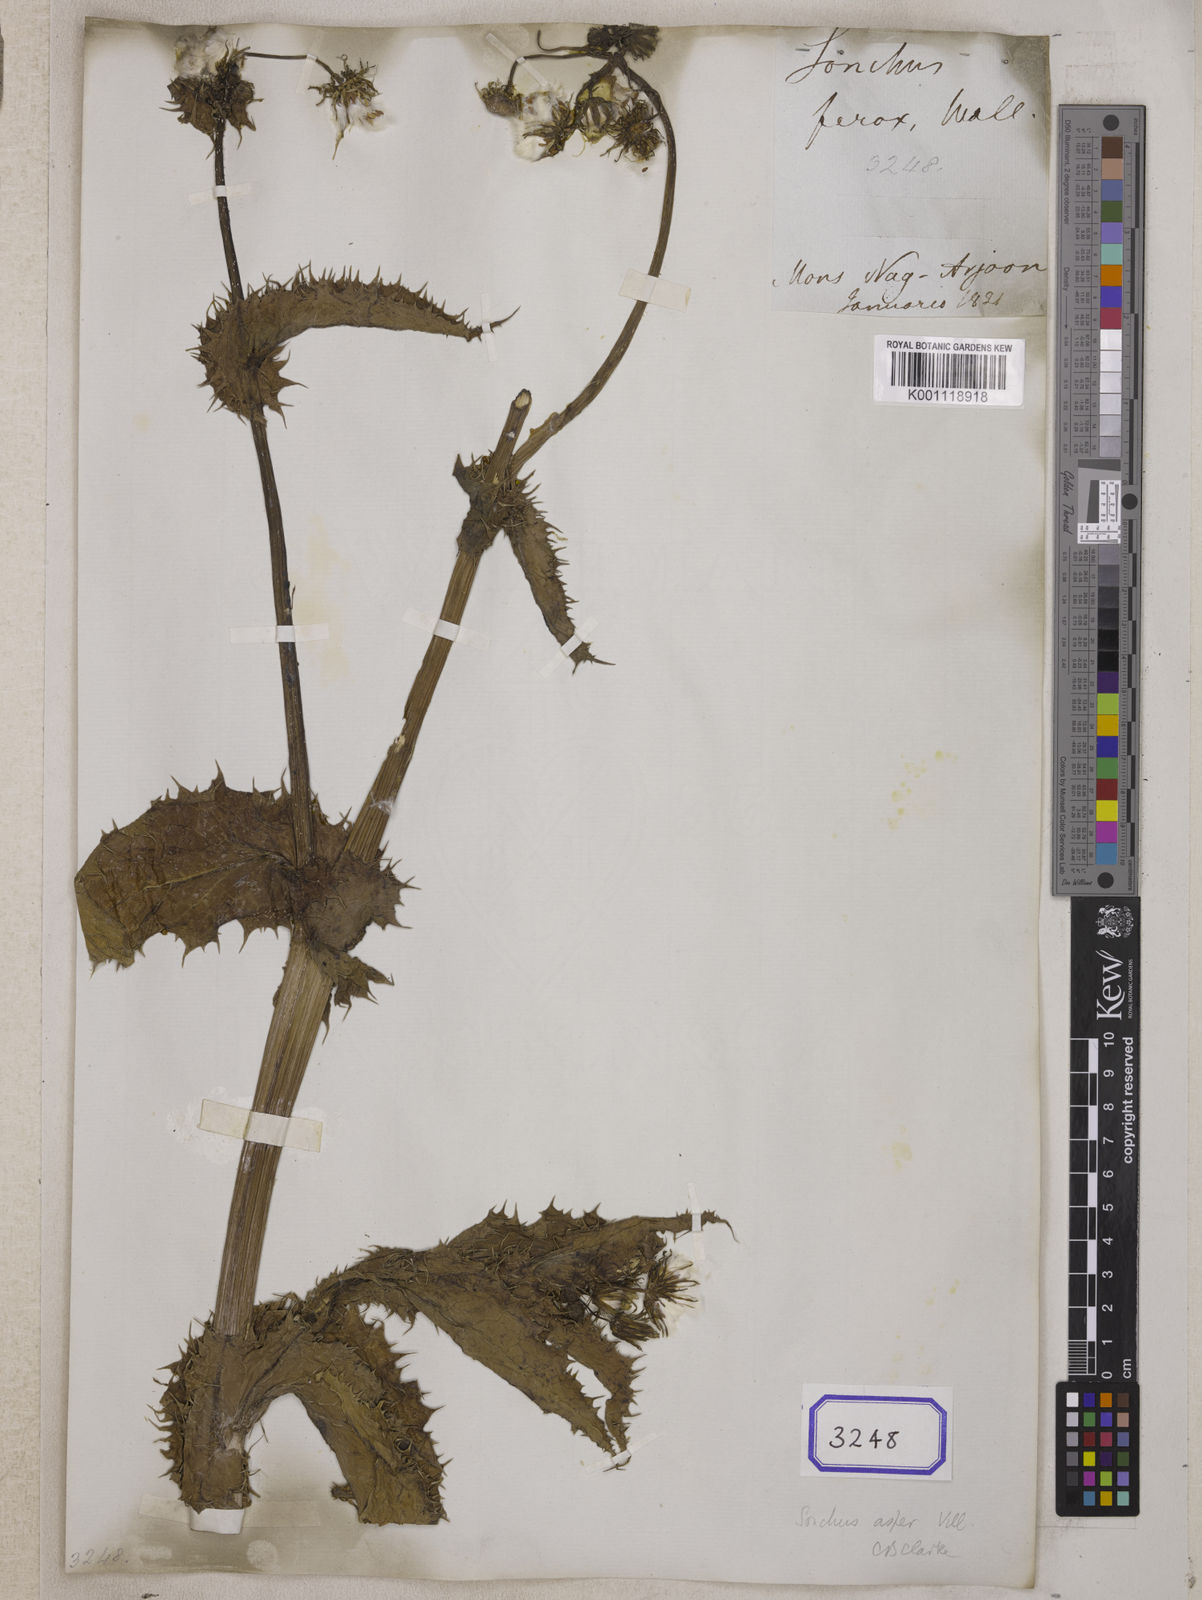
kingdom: Plantae
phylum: Tracheophyta
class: Magnoliopsida
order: Asterales
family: Asteraceae
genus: Sonchus
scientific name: Sonchus asper
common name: Prickly sow-thistle
